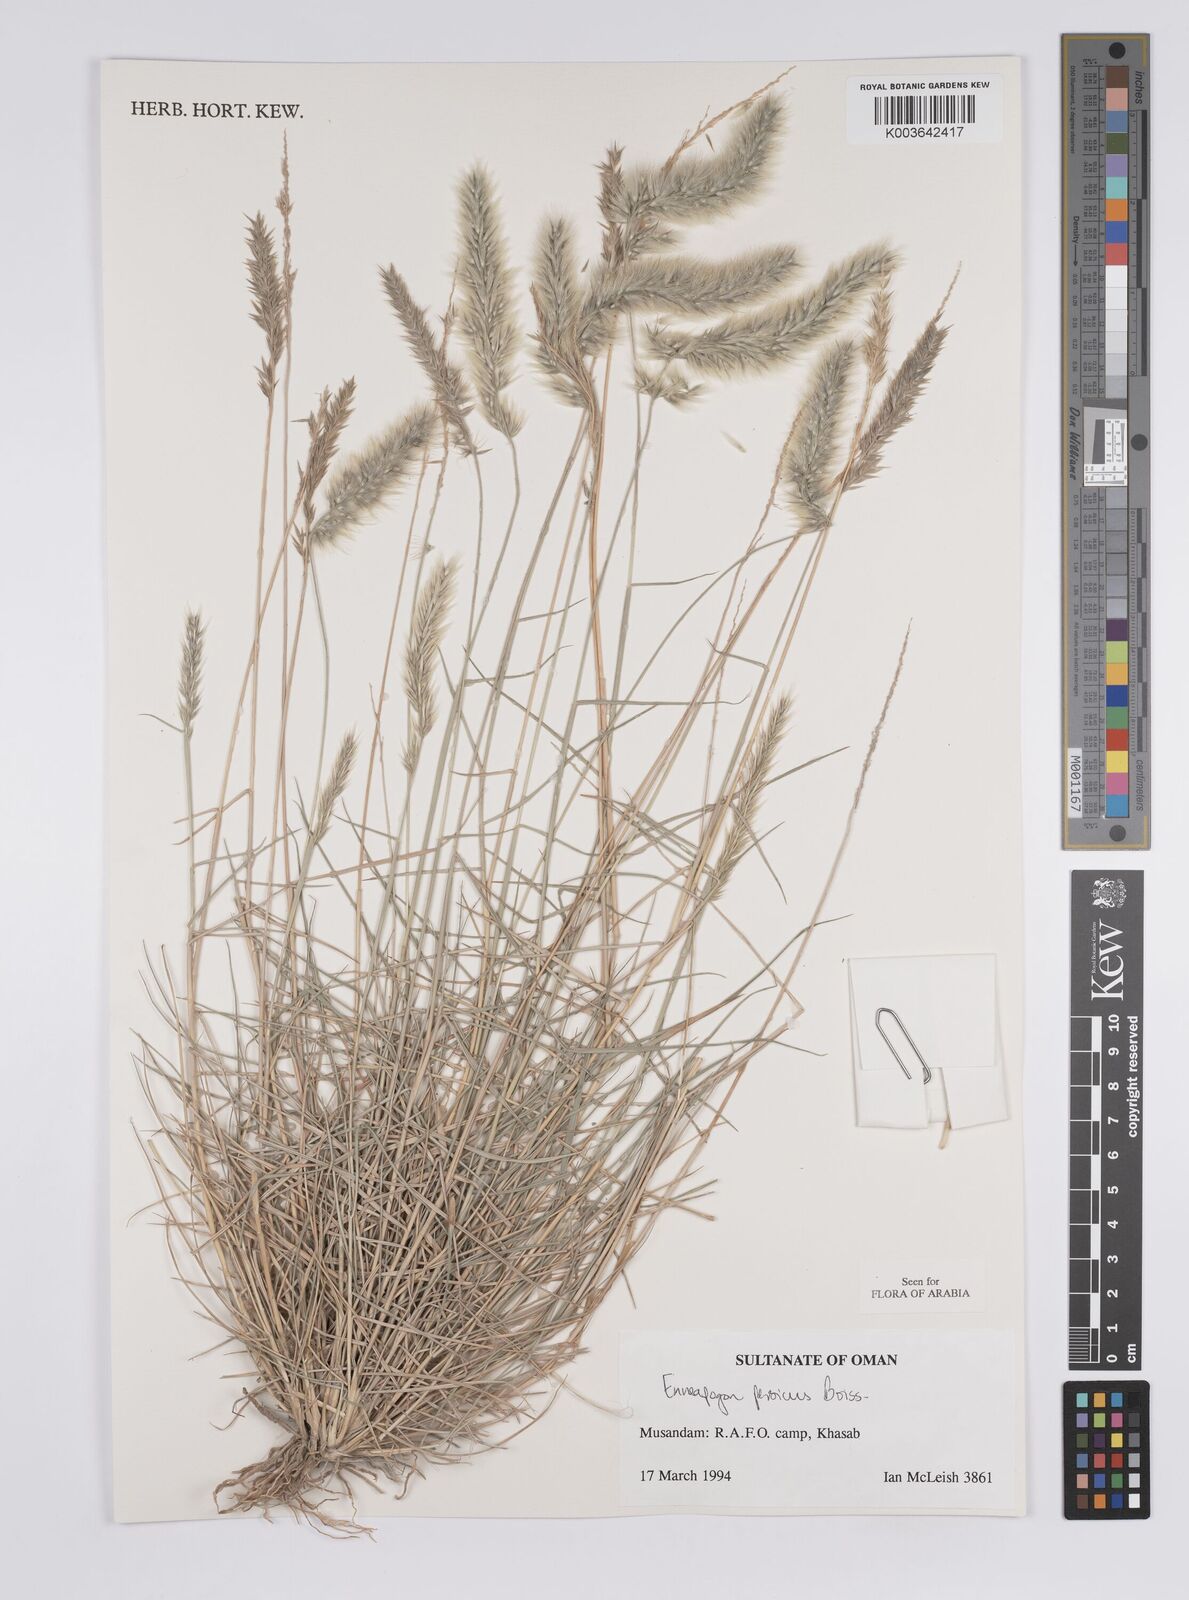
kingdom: Plantae
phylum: Tracheophyta
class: Liliopsida
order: Poales
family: Poaceae
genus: Enneapogon
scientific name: Enneapogon persicus
